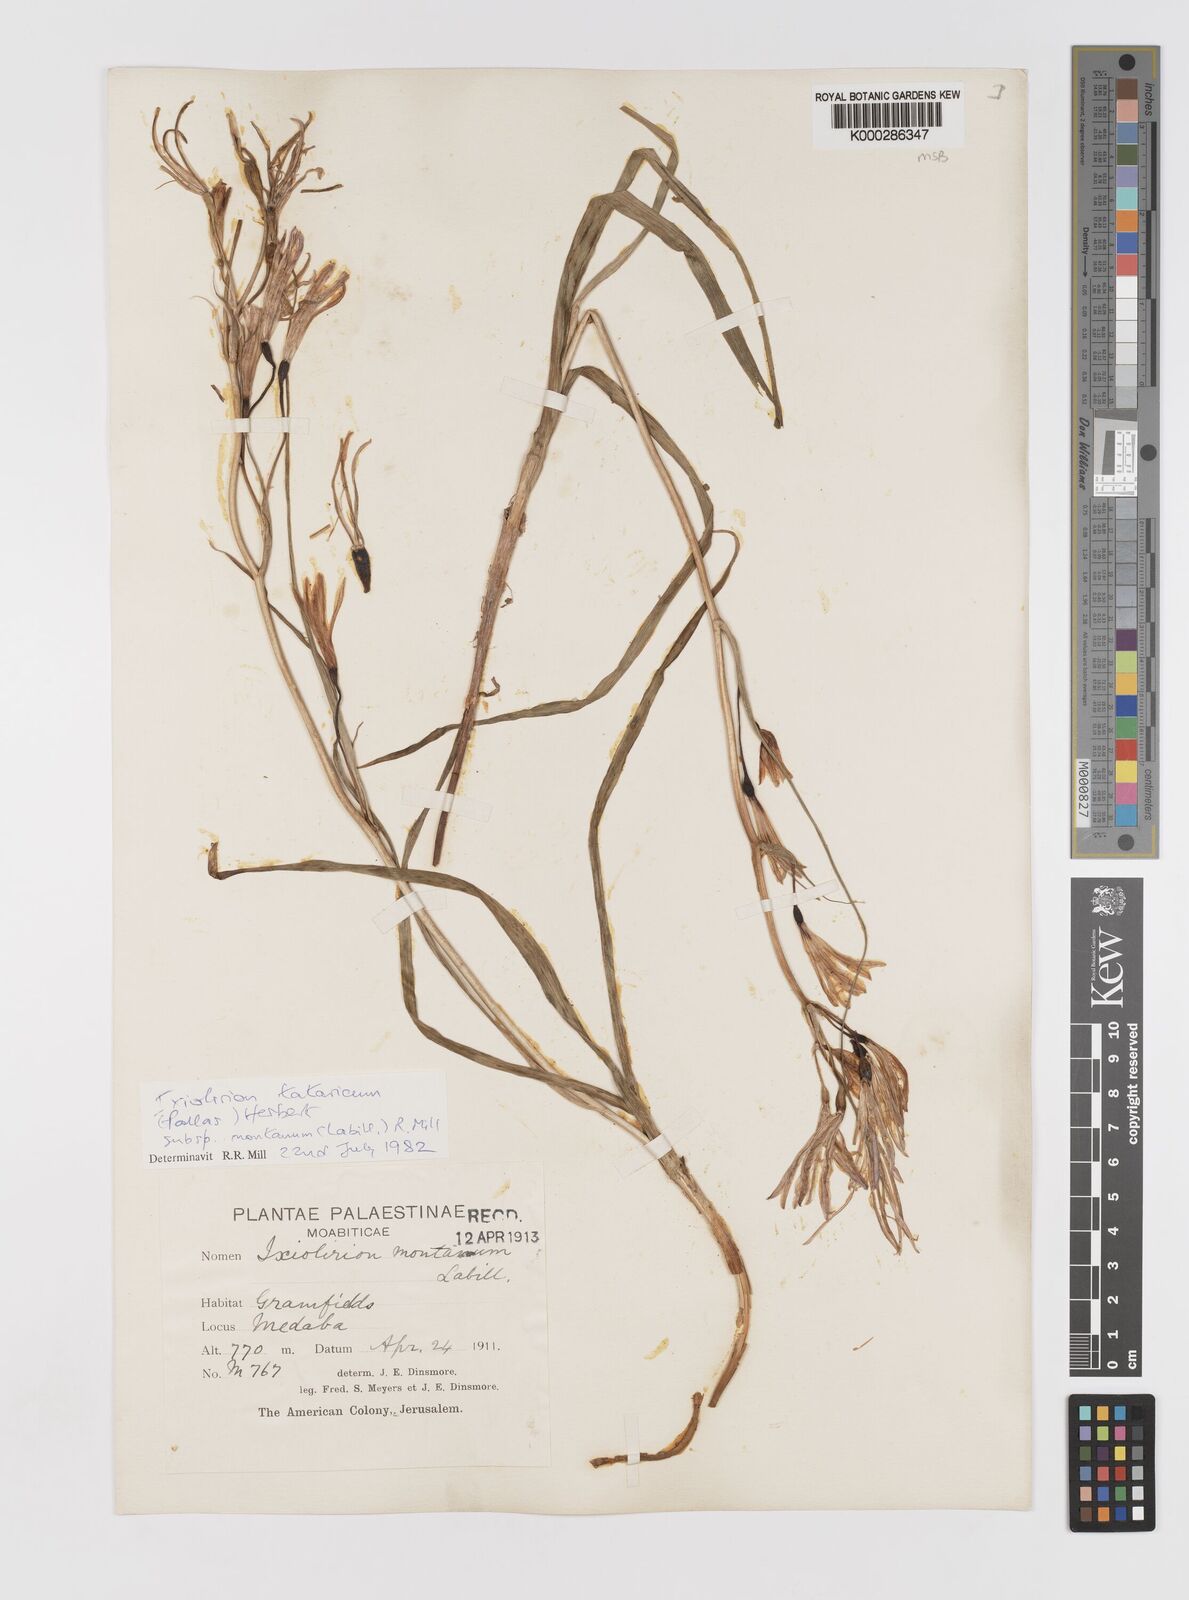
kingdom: Plantae
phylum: Tracheophyta
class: Liliopsida
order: Asparagales
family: Ixioliriaceae
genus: Ixiolirion
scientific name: Ixiolirion tataricum
